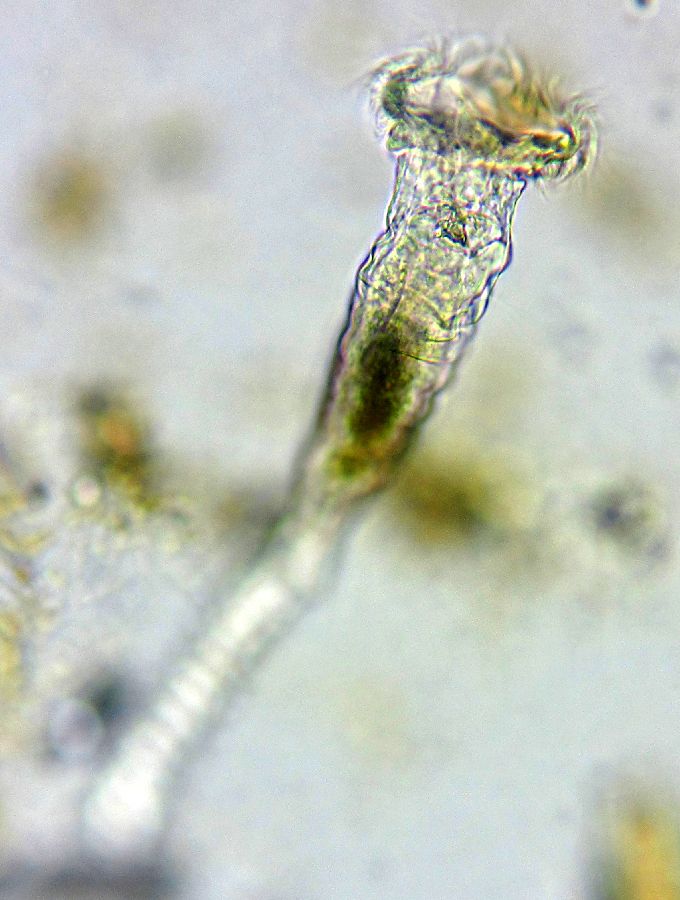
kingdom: Animalia
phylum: Rotifera
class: Eurotatoria
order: Flosculariaceae
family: Flosculariidae
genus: Ptygura
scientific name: Ptygura melicerta
